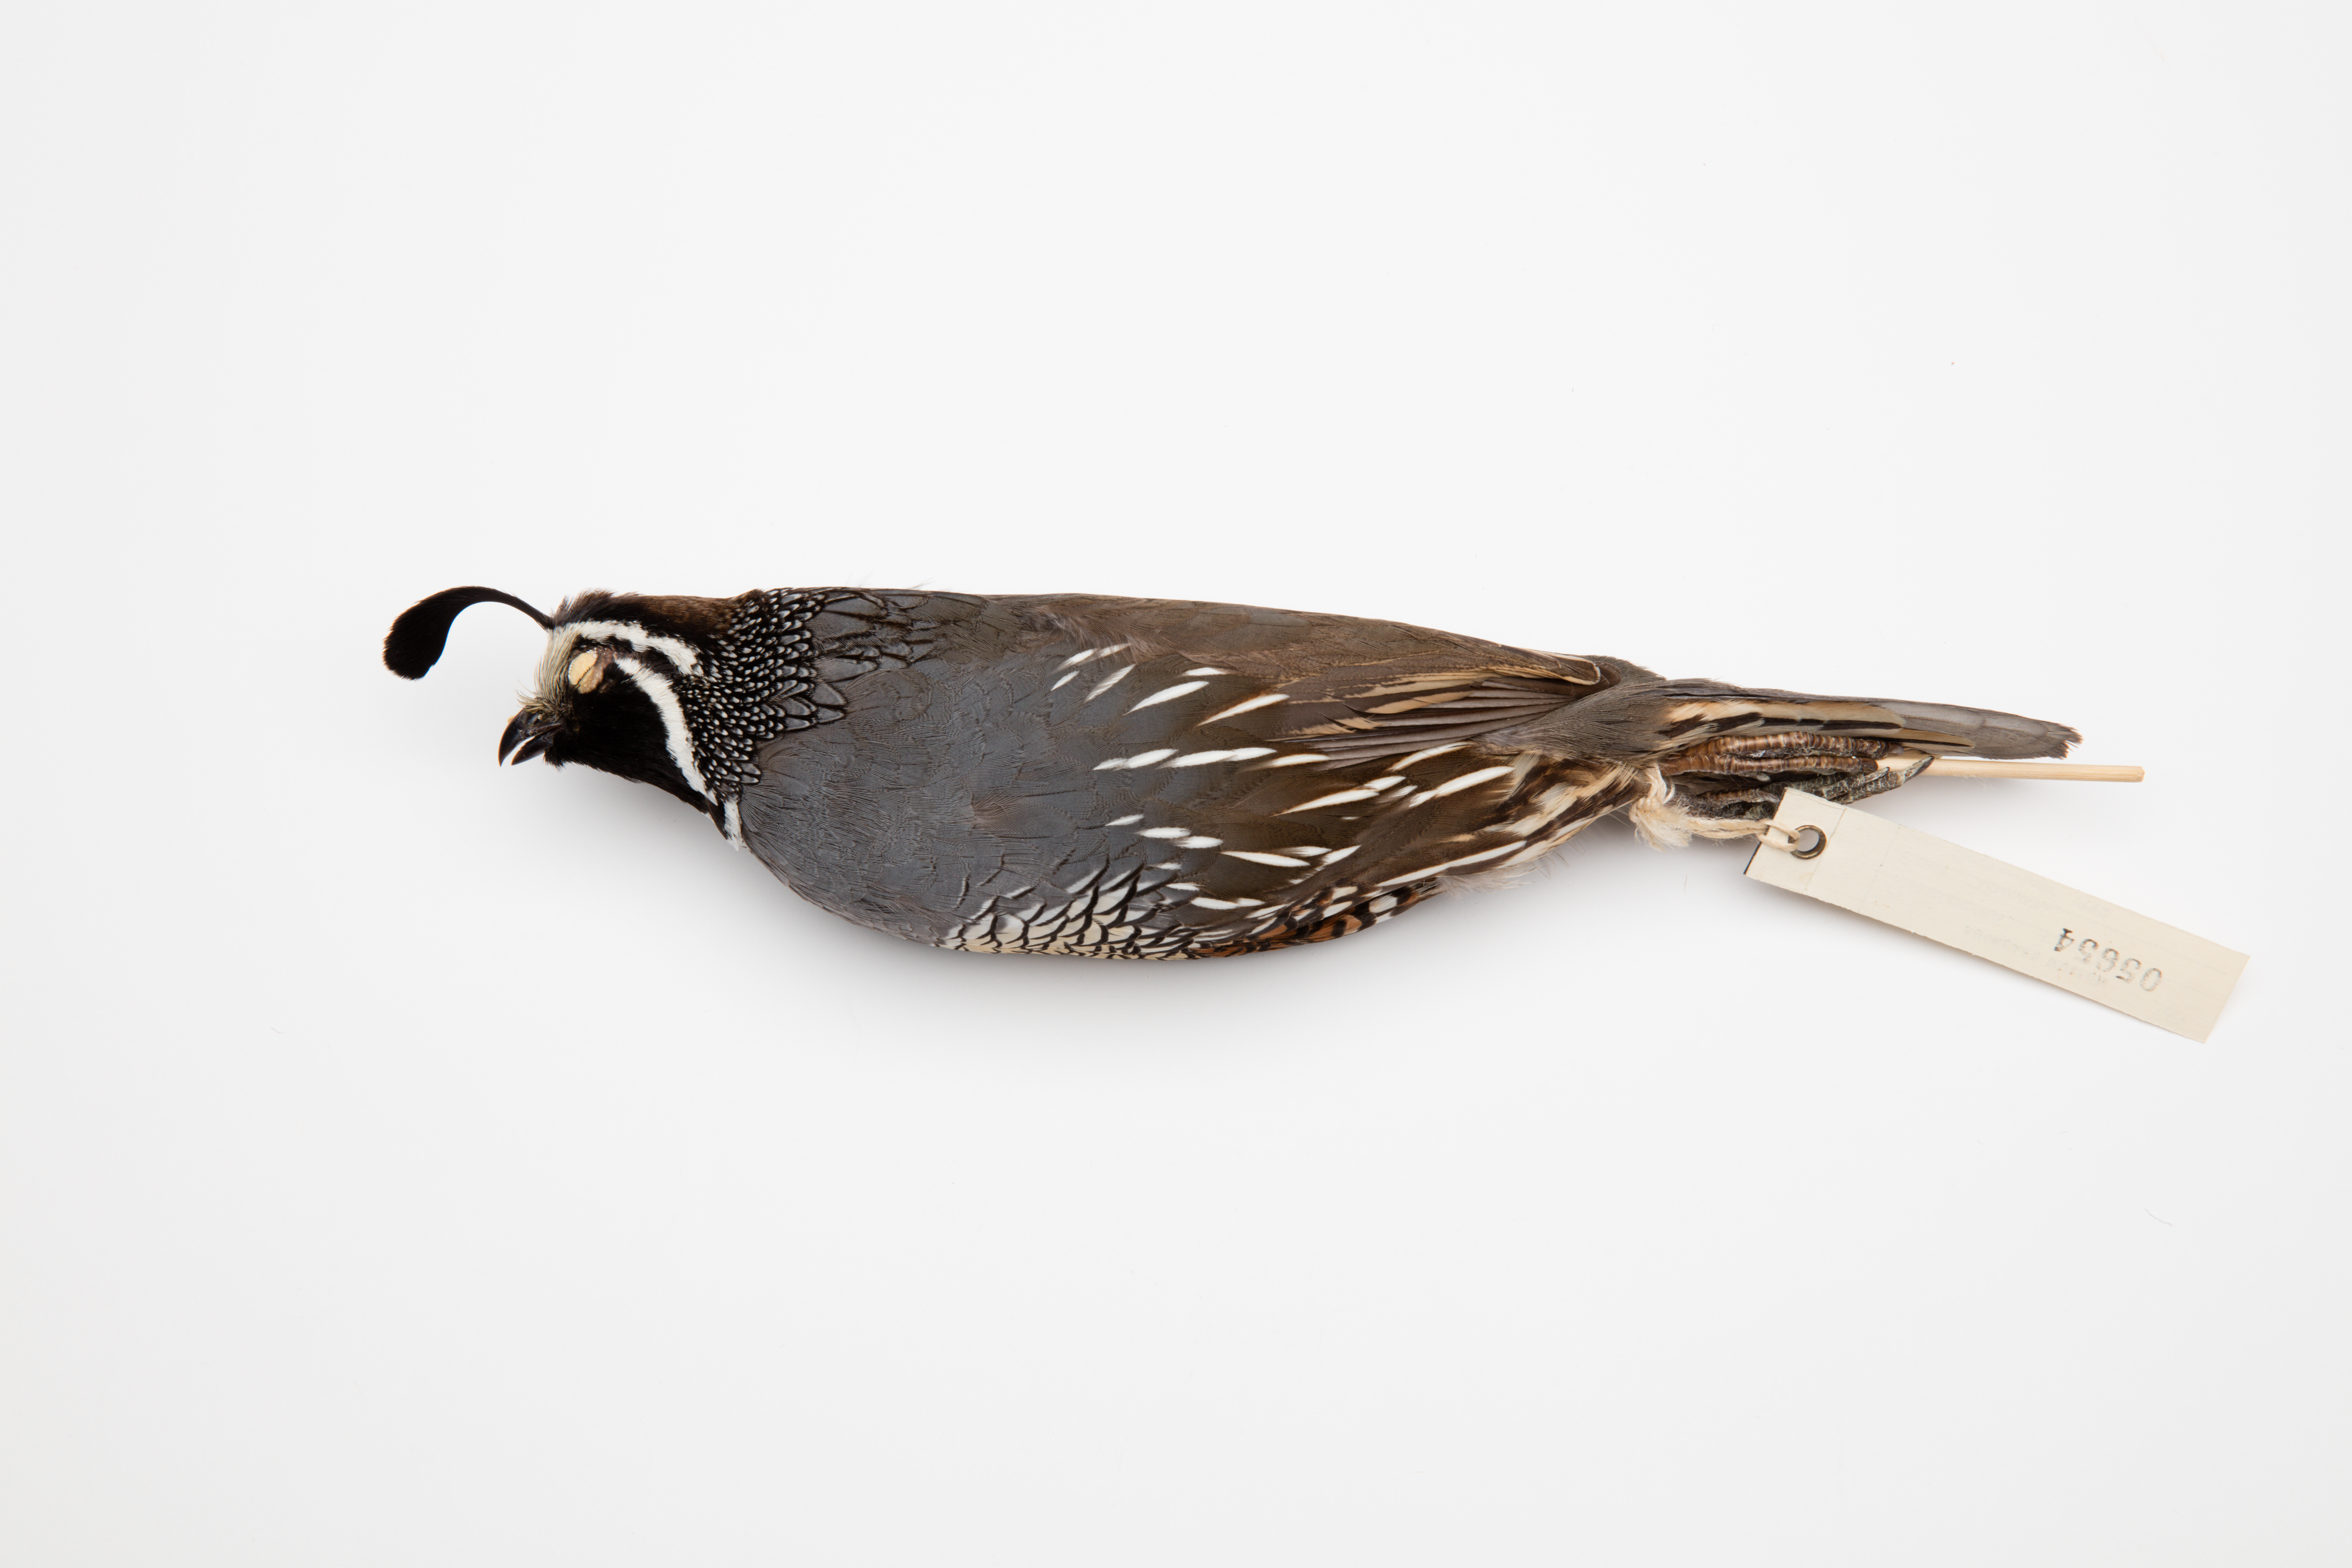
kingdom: Animalia
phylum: Chordata
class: Aves
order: Galliformes
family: Odontophoridae
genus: Callipepla
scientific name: Callipepla californica
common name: California quail
